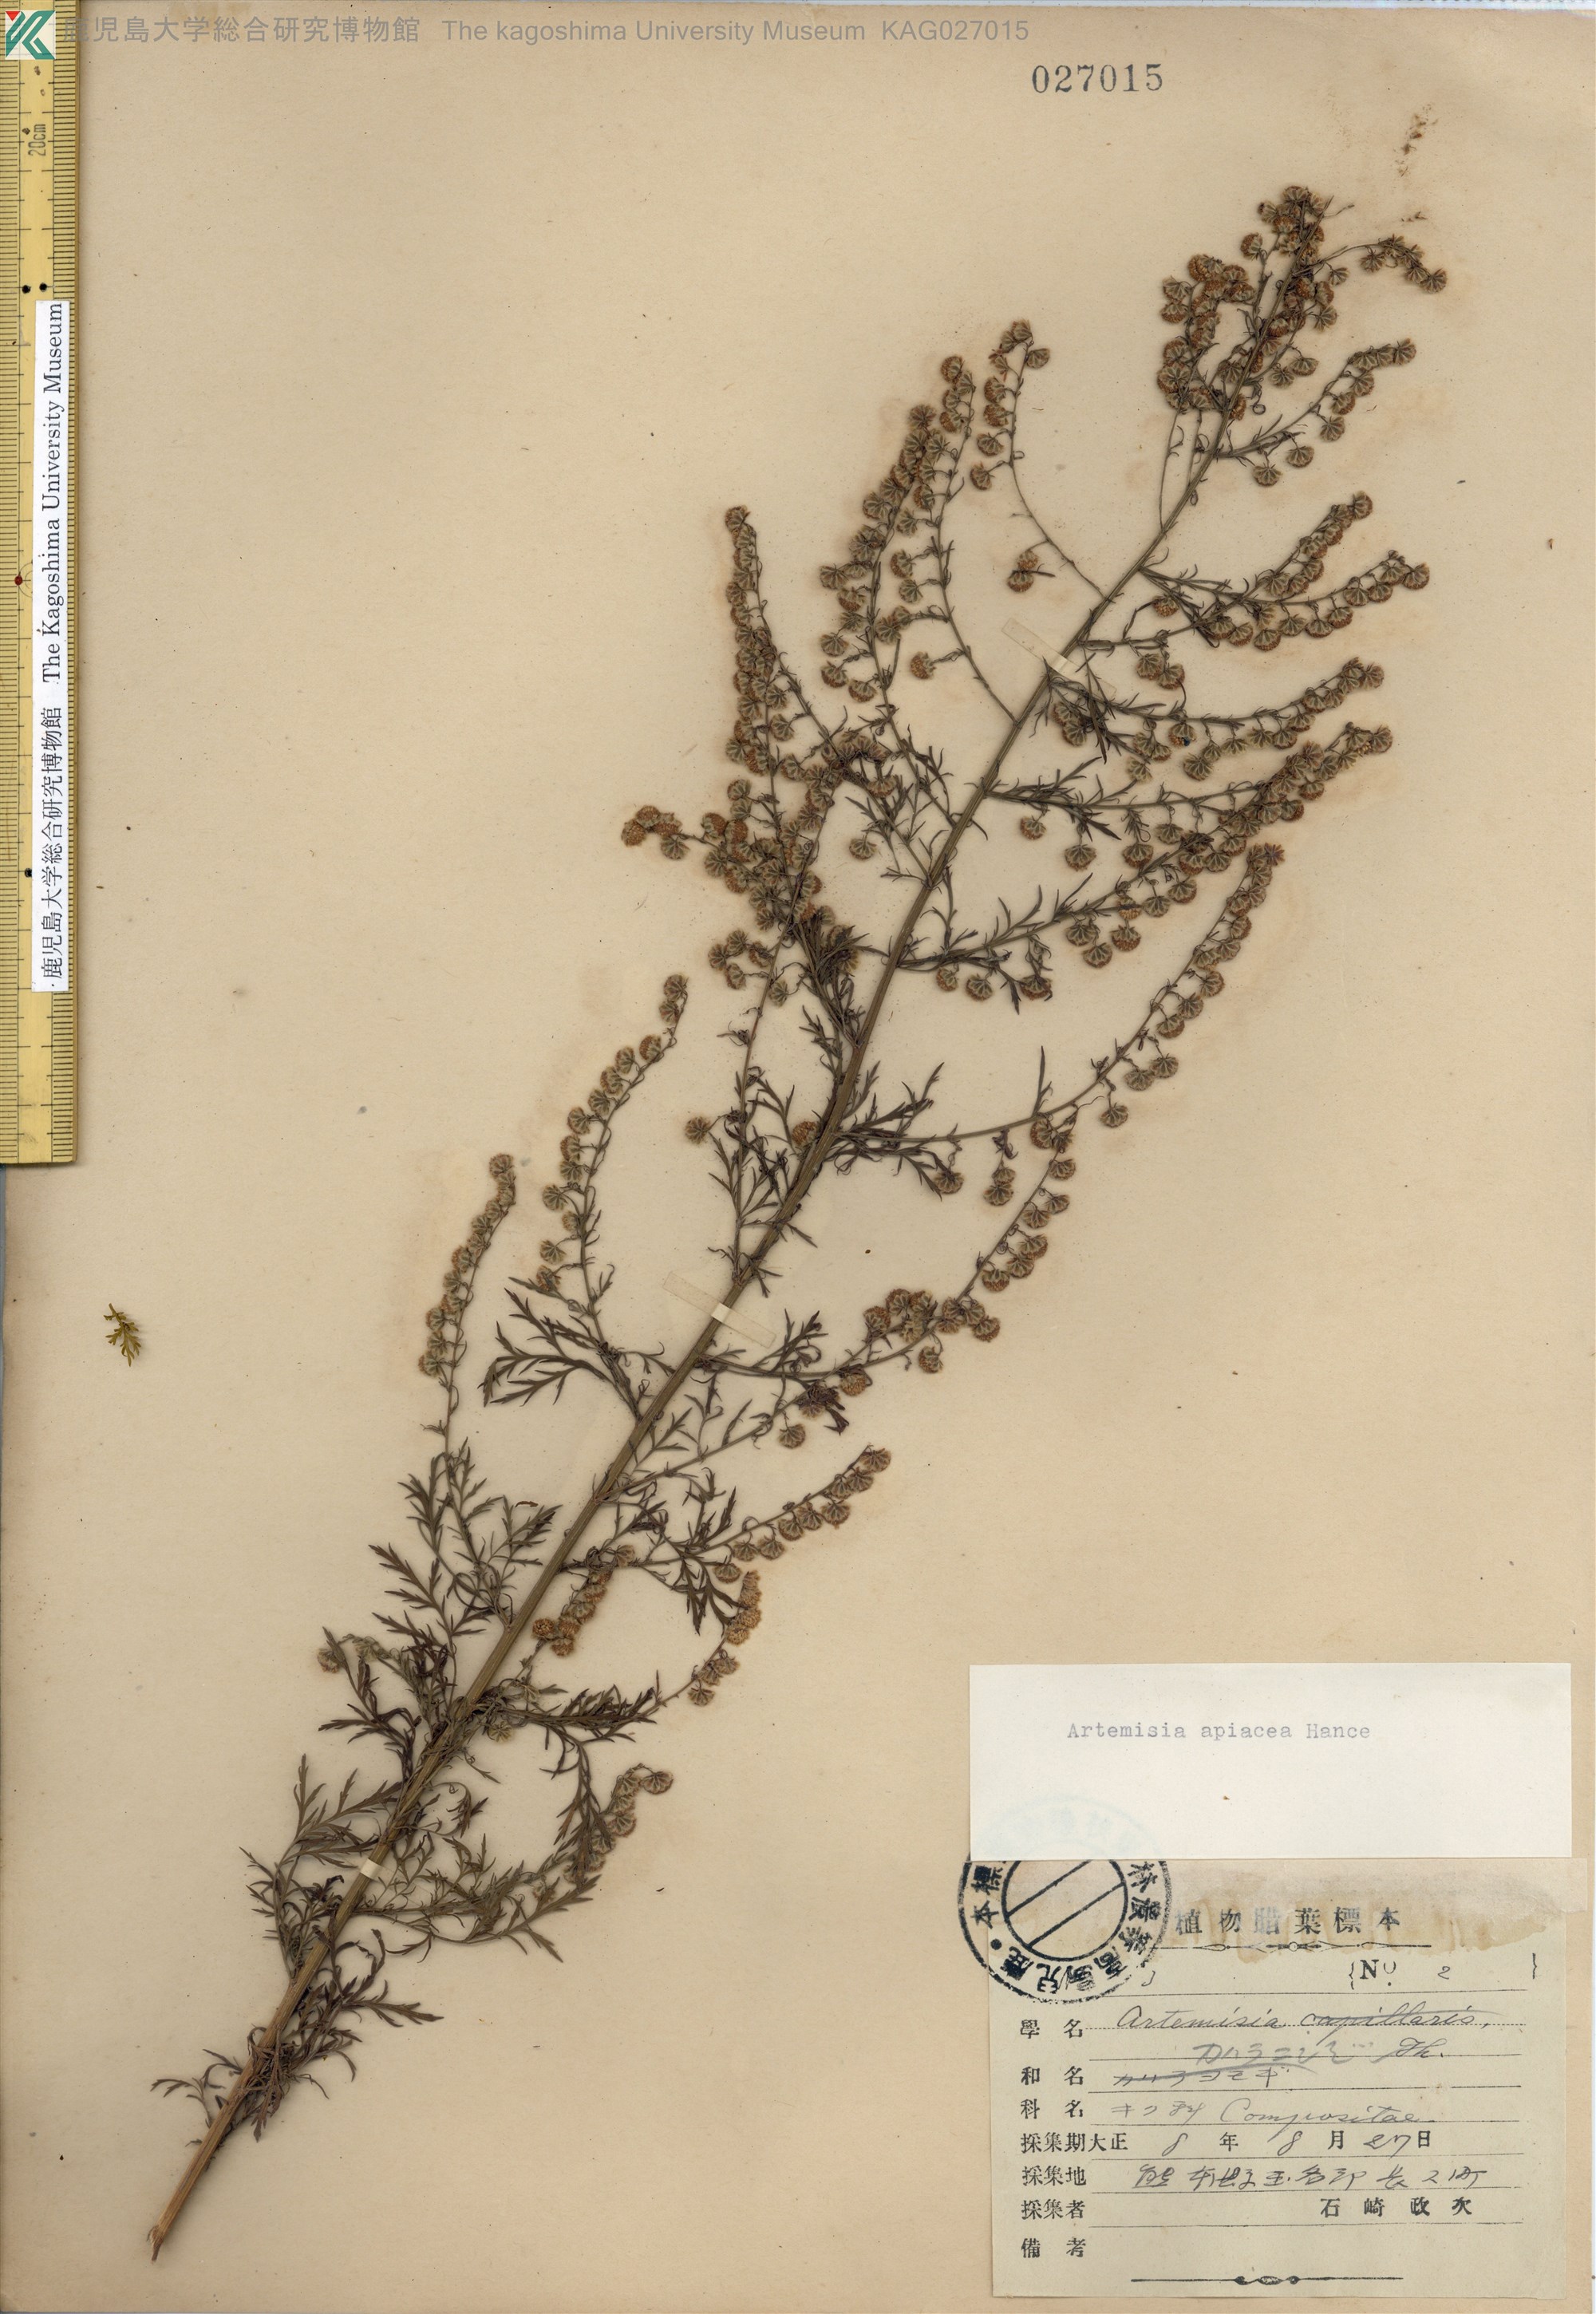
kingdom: Plantae
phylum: Tracheophyta
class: Magnoliopsida
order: Asterales
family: Asteraceae
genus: Artemisia
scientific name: Artemisia carvifolia
